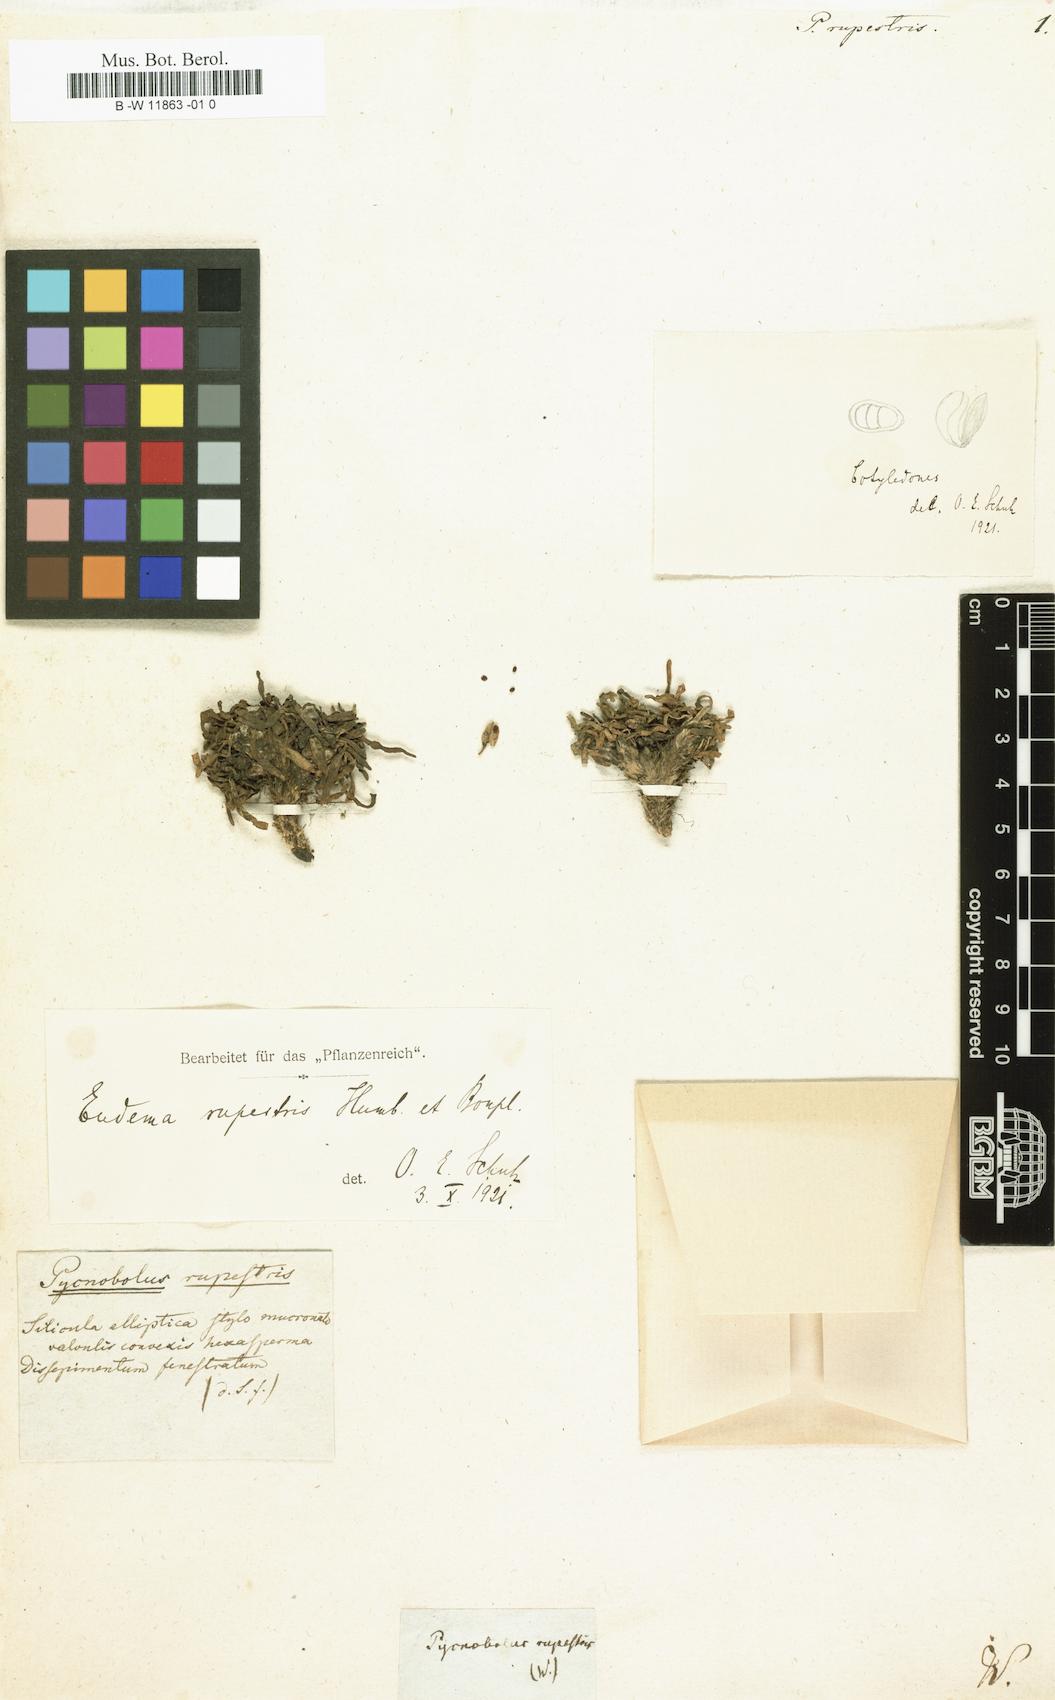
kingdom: Plantae
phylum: Tracheophyta
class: Magnoliopsida
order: Brassicales
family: Brassicaceae
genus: Eudema
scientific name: Eudema
